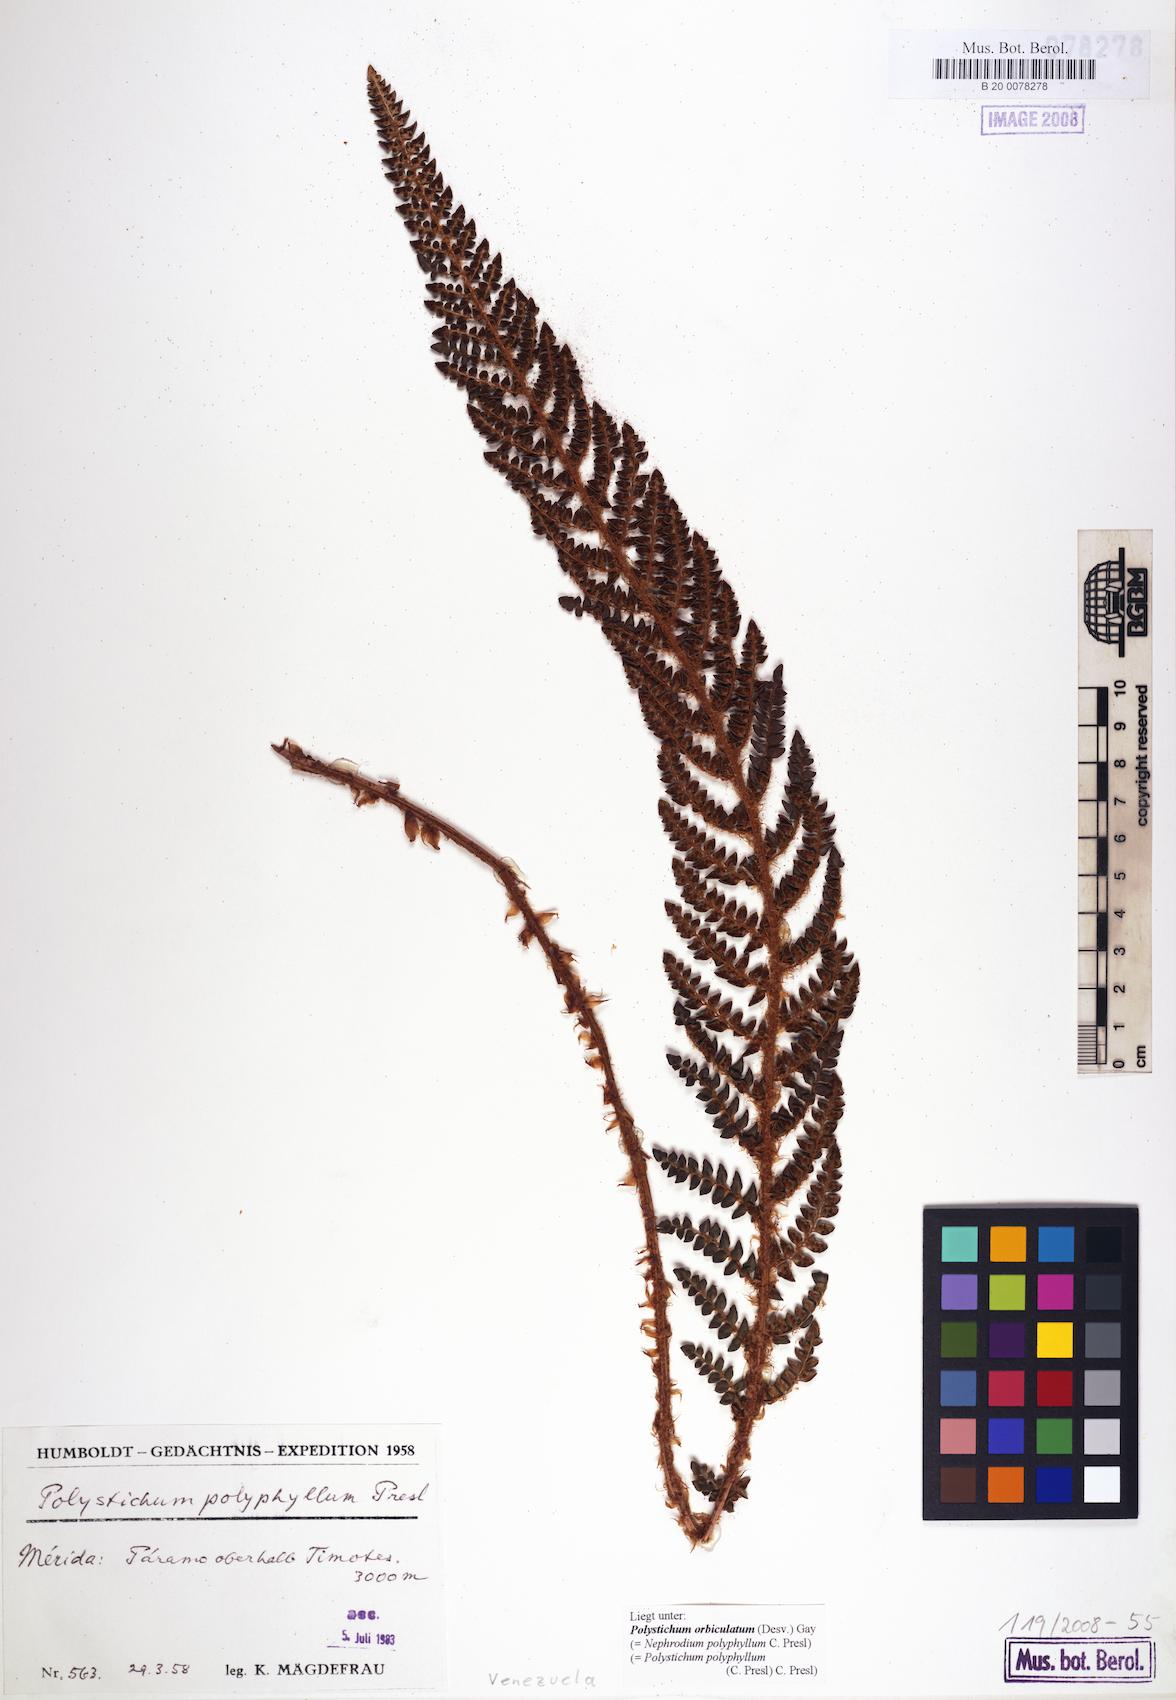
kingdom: Plantae
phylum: Tracheophyta
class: Polypodiopsida
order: Polypodiales
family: Dryopteridaceae
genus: Polystichum
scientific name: Polystichum orbiculatum
